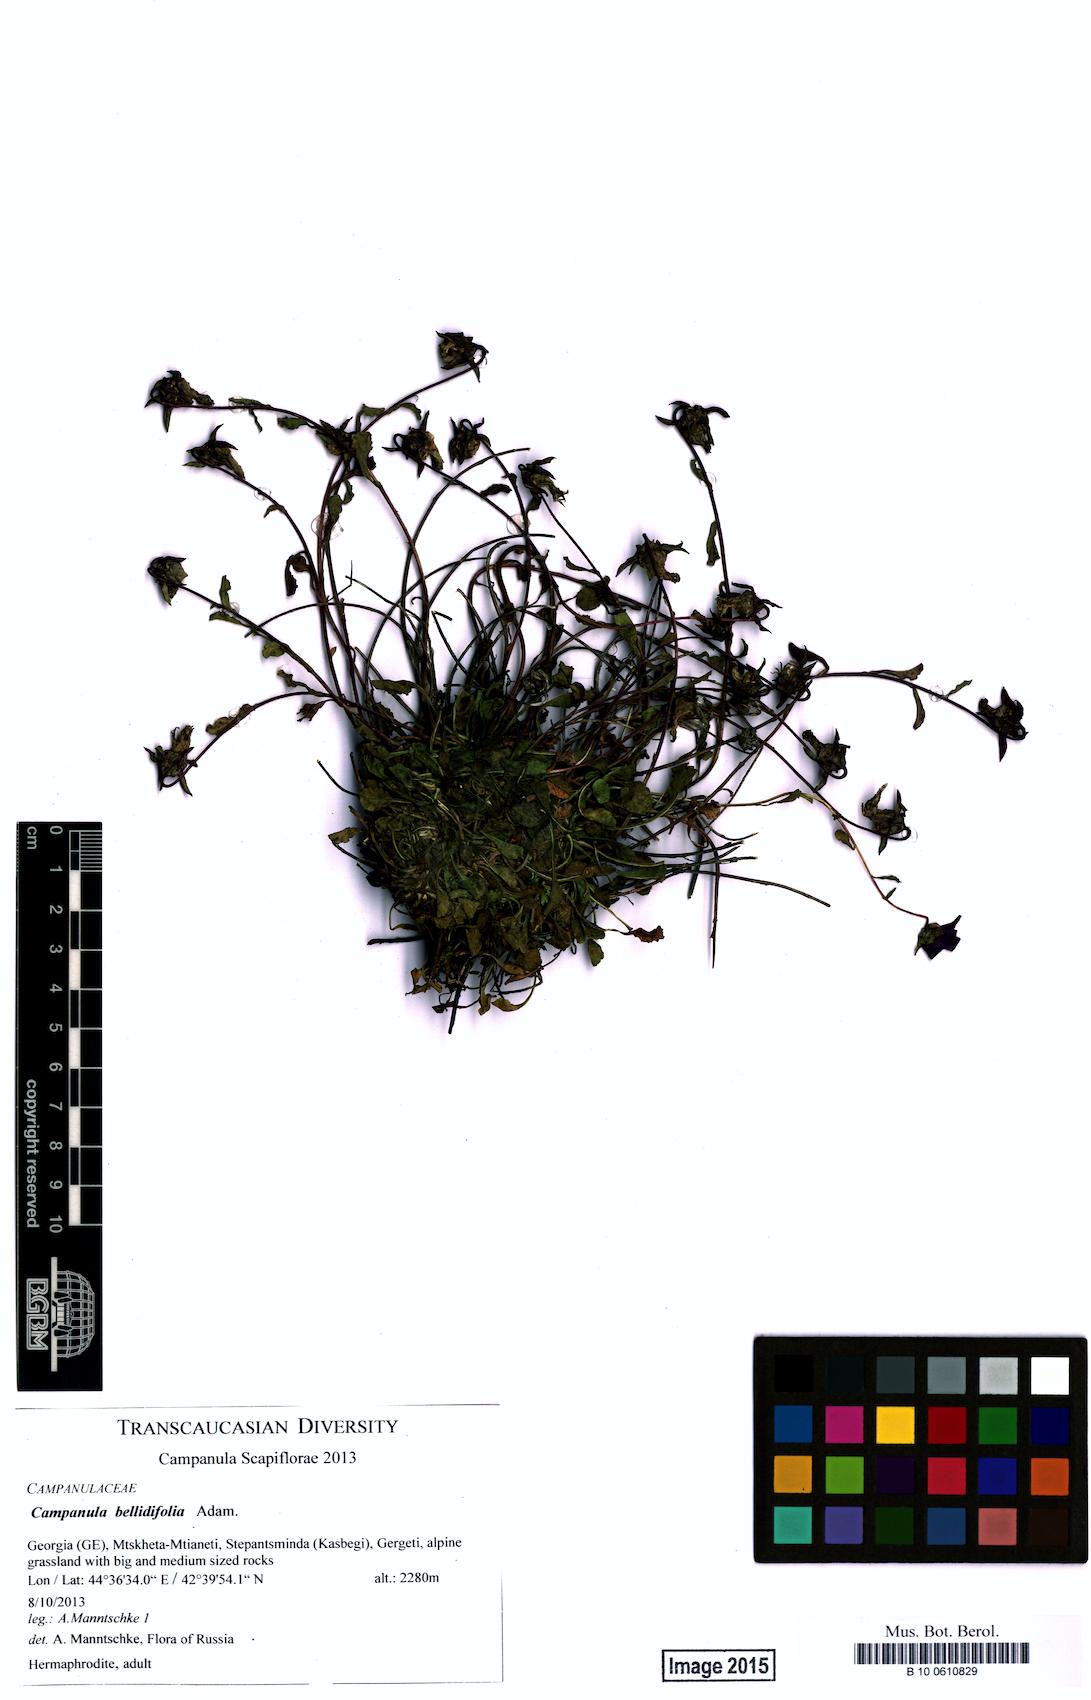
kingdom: Plantae
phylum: Tracheophyta
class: Magnoliopsida
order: Asterales
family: Campanulaceae
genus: Campanula
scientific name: Campanula bellidifolia
